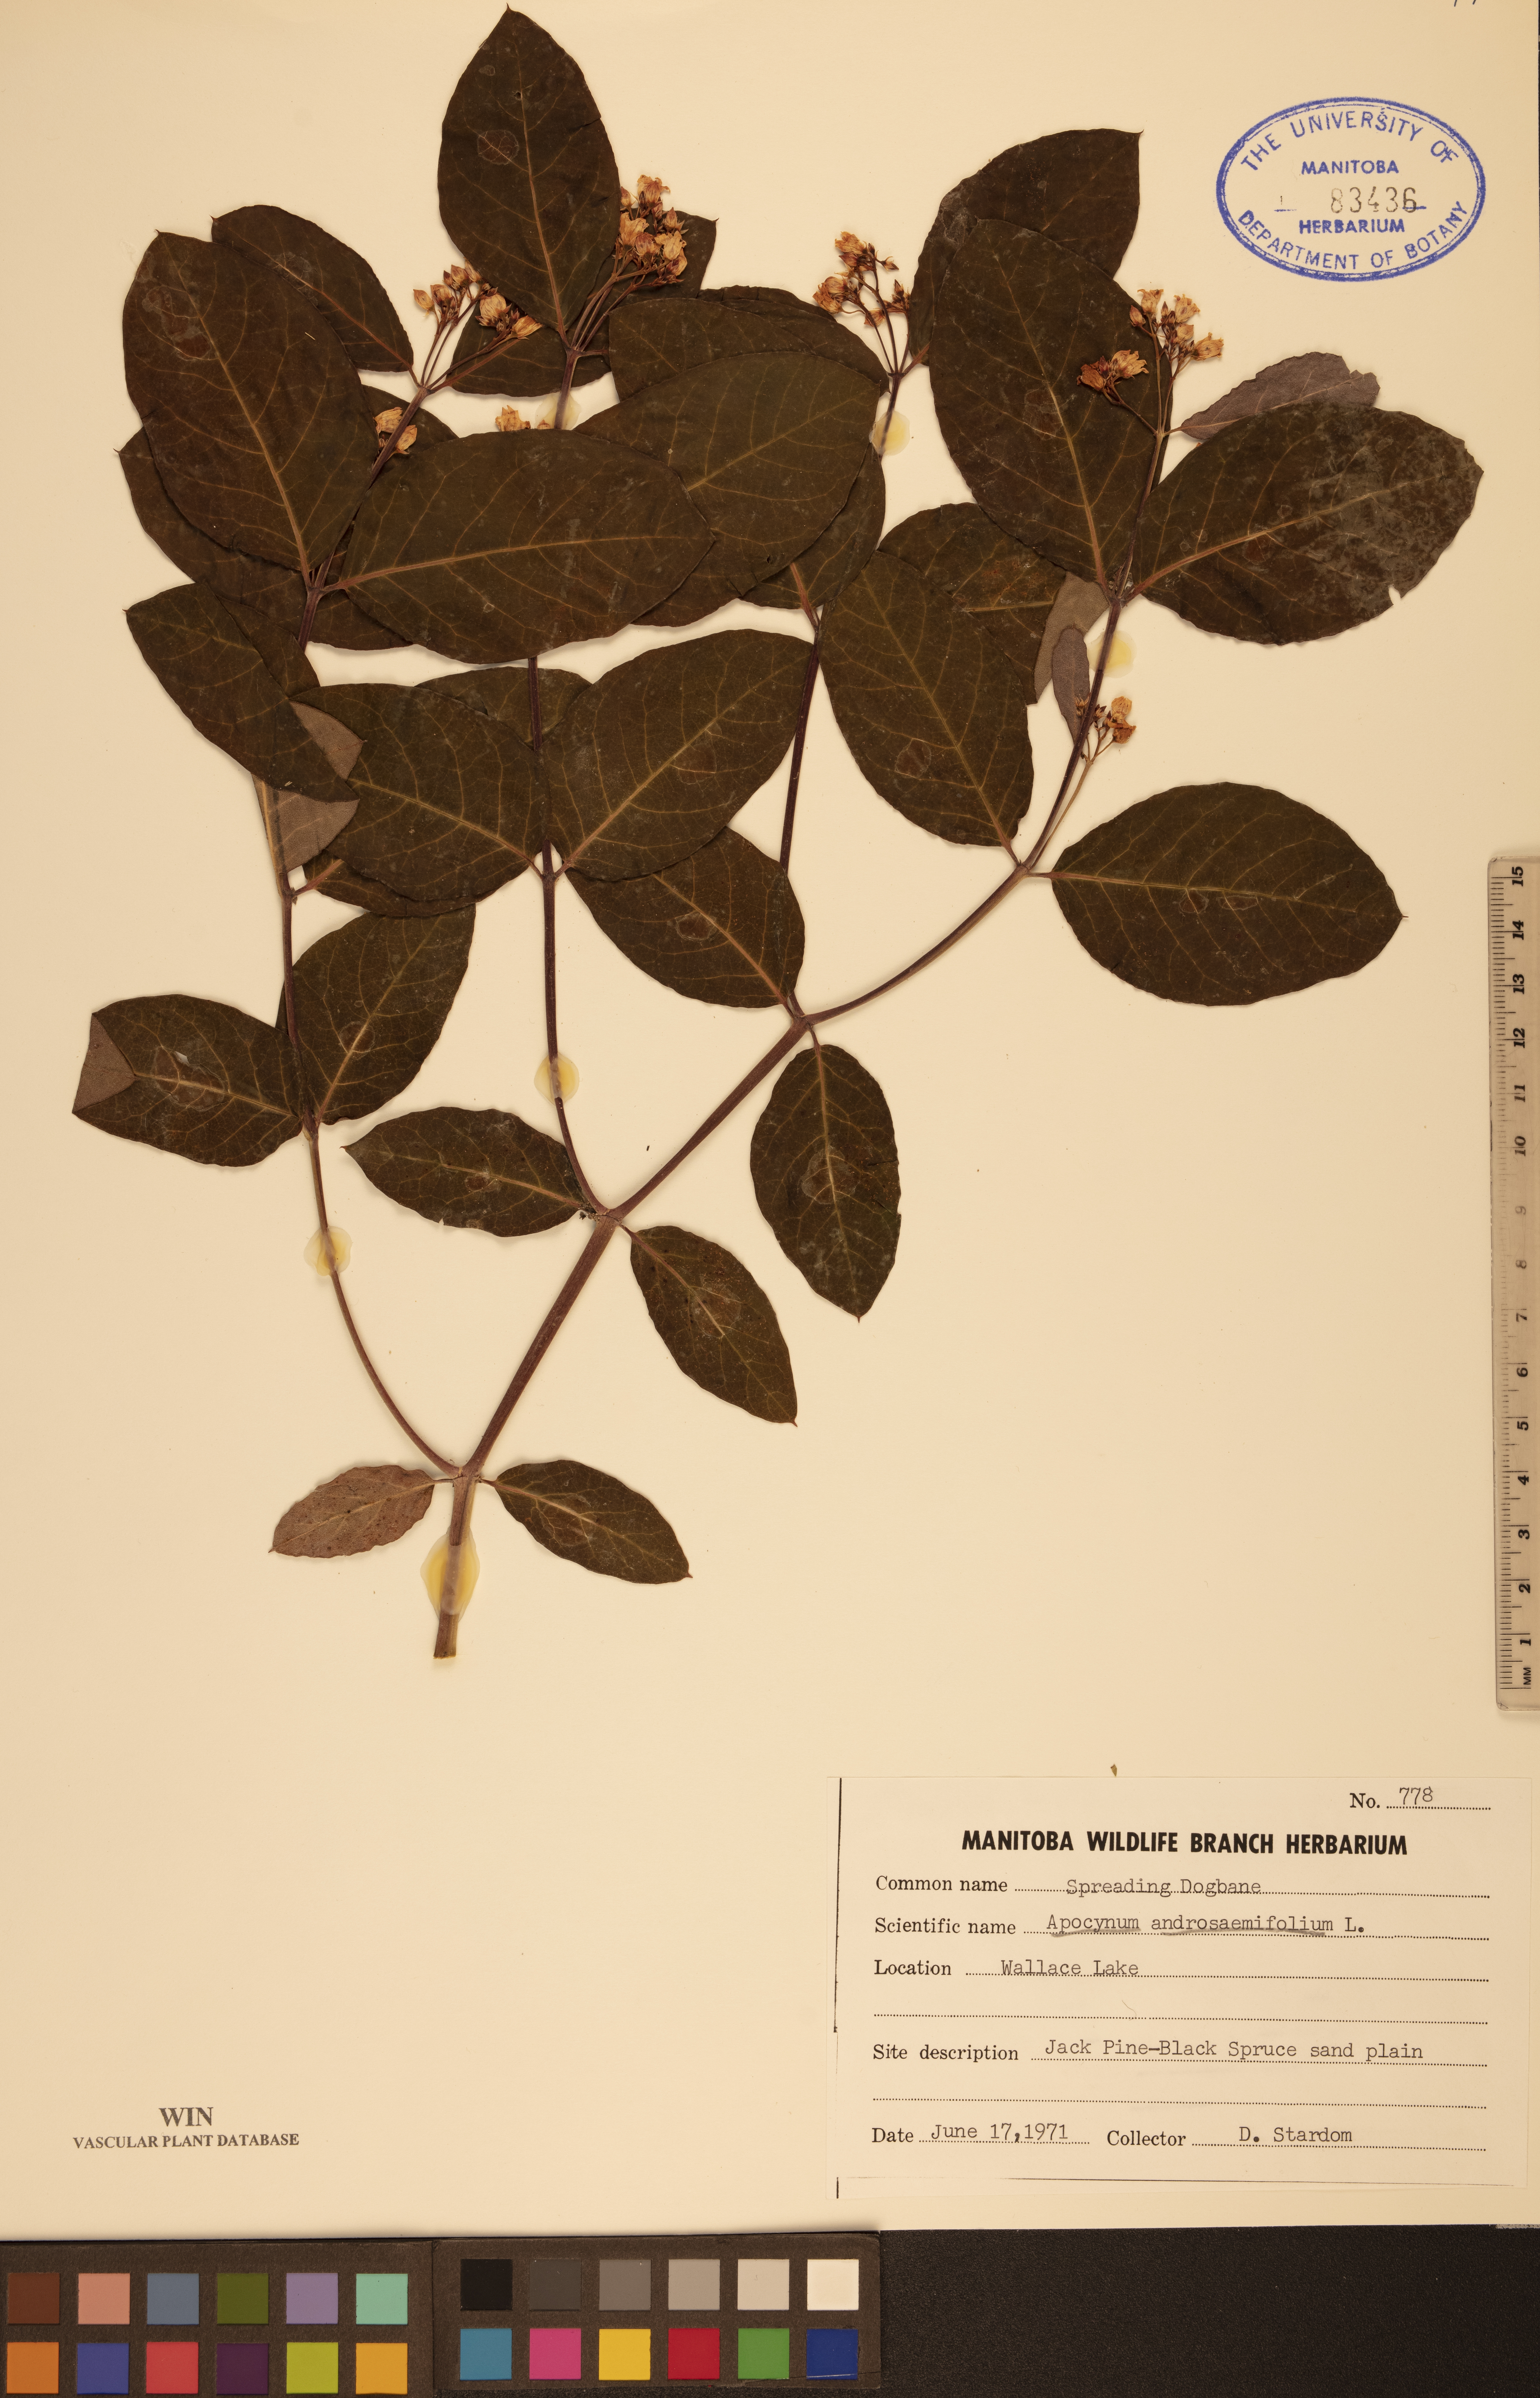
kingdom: Plantae
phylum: Tracheophyta
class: Magnoliopsida
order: Gentianales
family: Apocynaceae
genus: Apocynum
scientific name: Apocynum androsaemifolium
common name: Spreading dogbane
